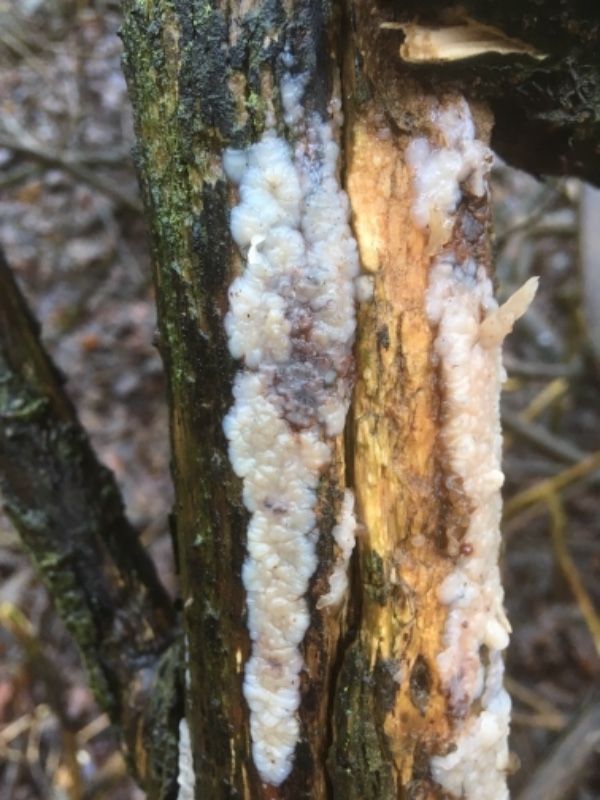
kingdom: Fungi
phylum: Basidiomycota
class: Agaricomycetes
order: Auriculariales
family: Auriculariaceae
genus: Exidia
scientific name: Exidia thuretiana
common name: hvidlig bævretop
